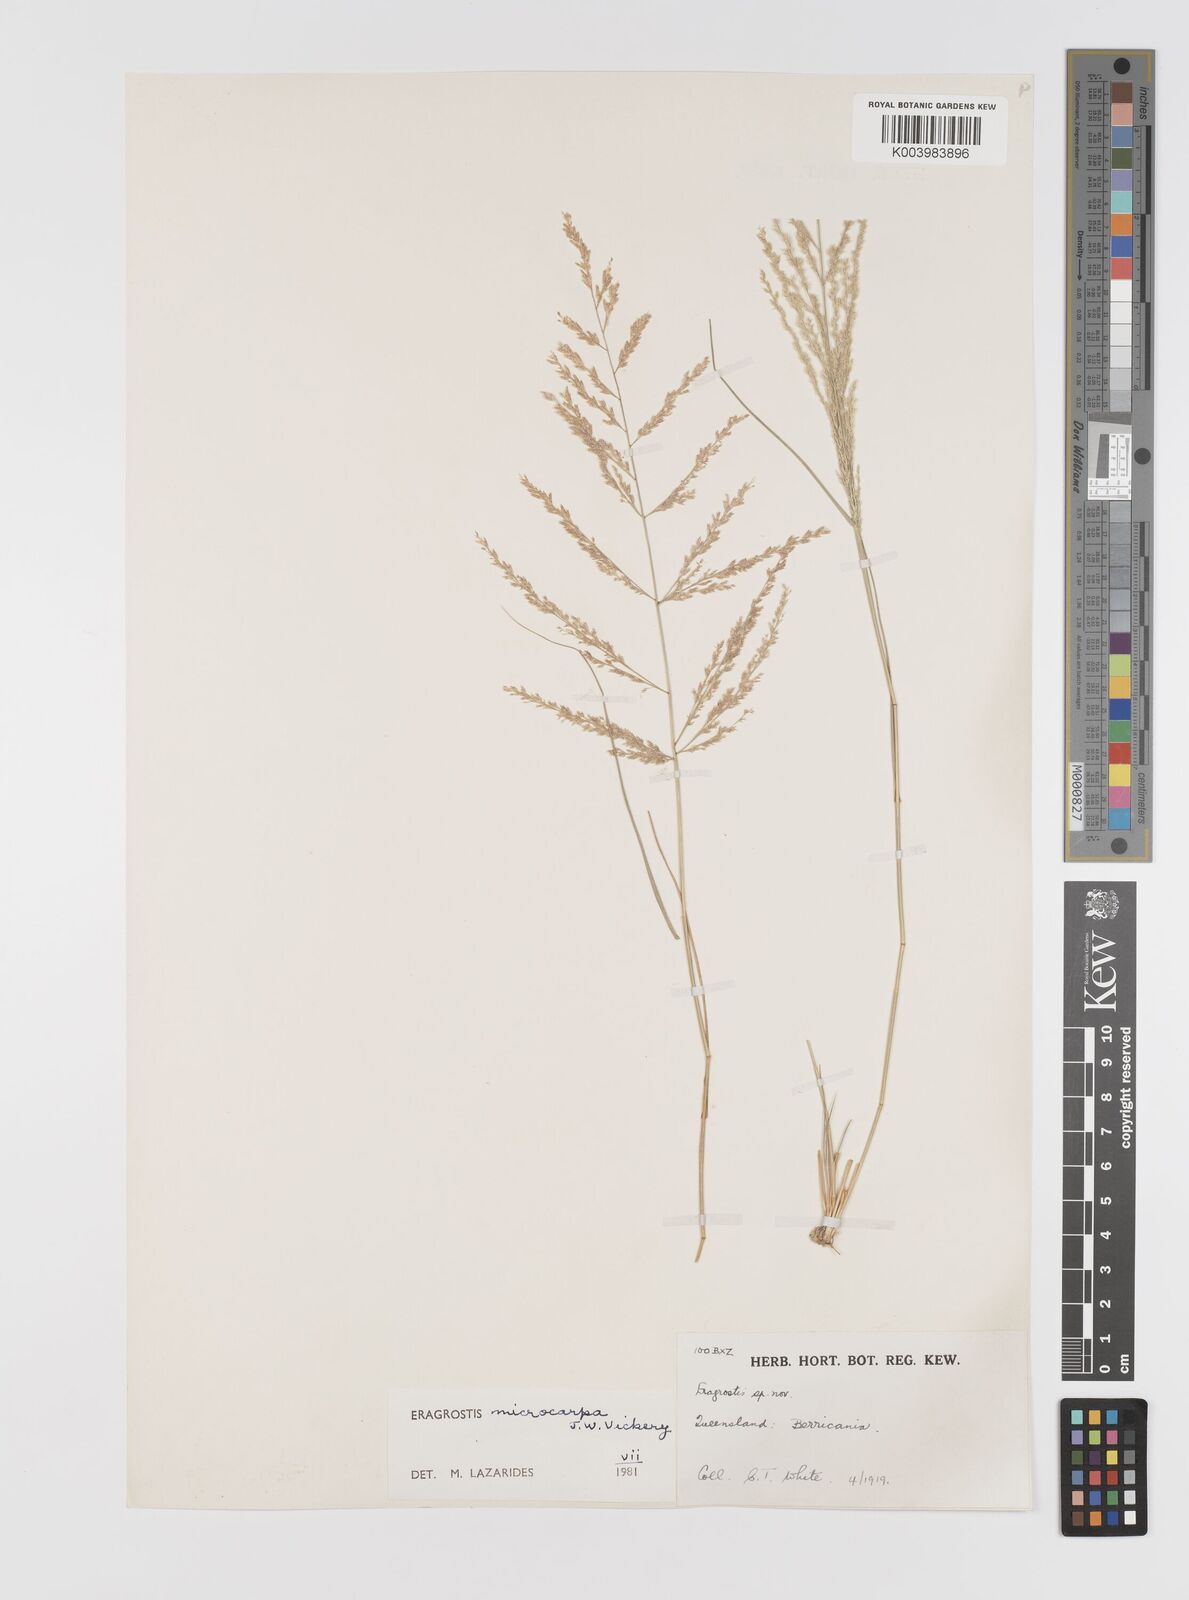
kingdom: Plantae
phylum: Tracheophyta
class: Liliopsida
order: Poales
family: Poaceae
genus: Eragrostis
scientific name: Eragrostis microcarpa
